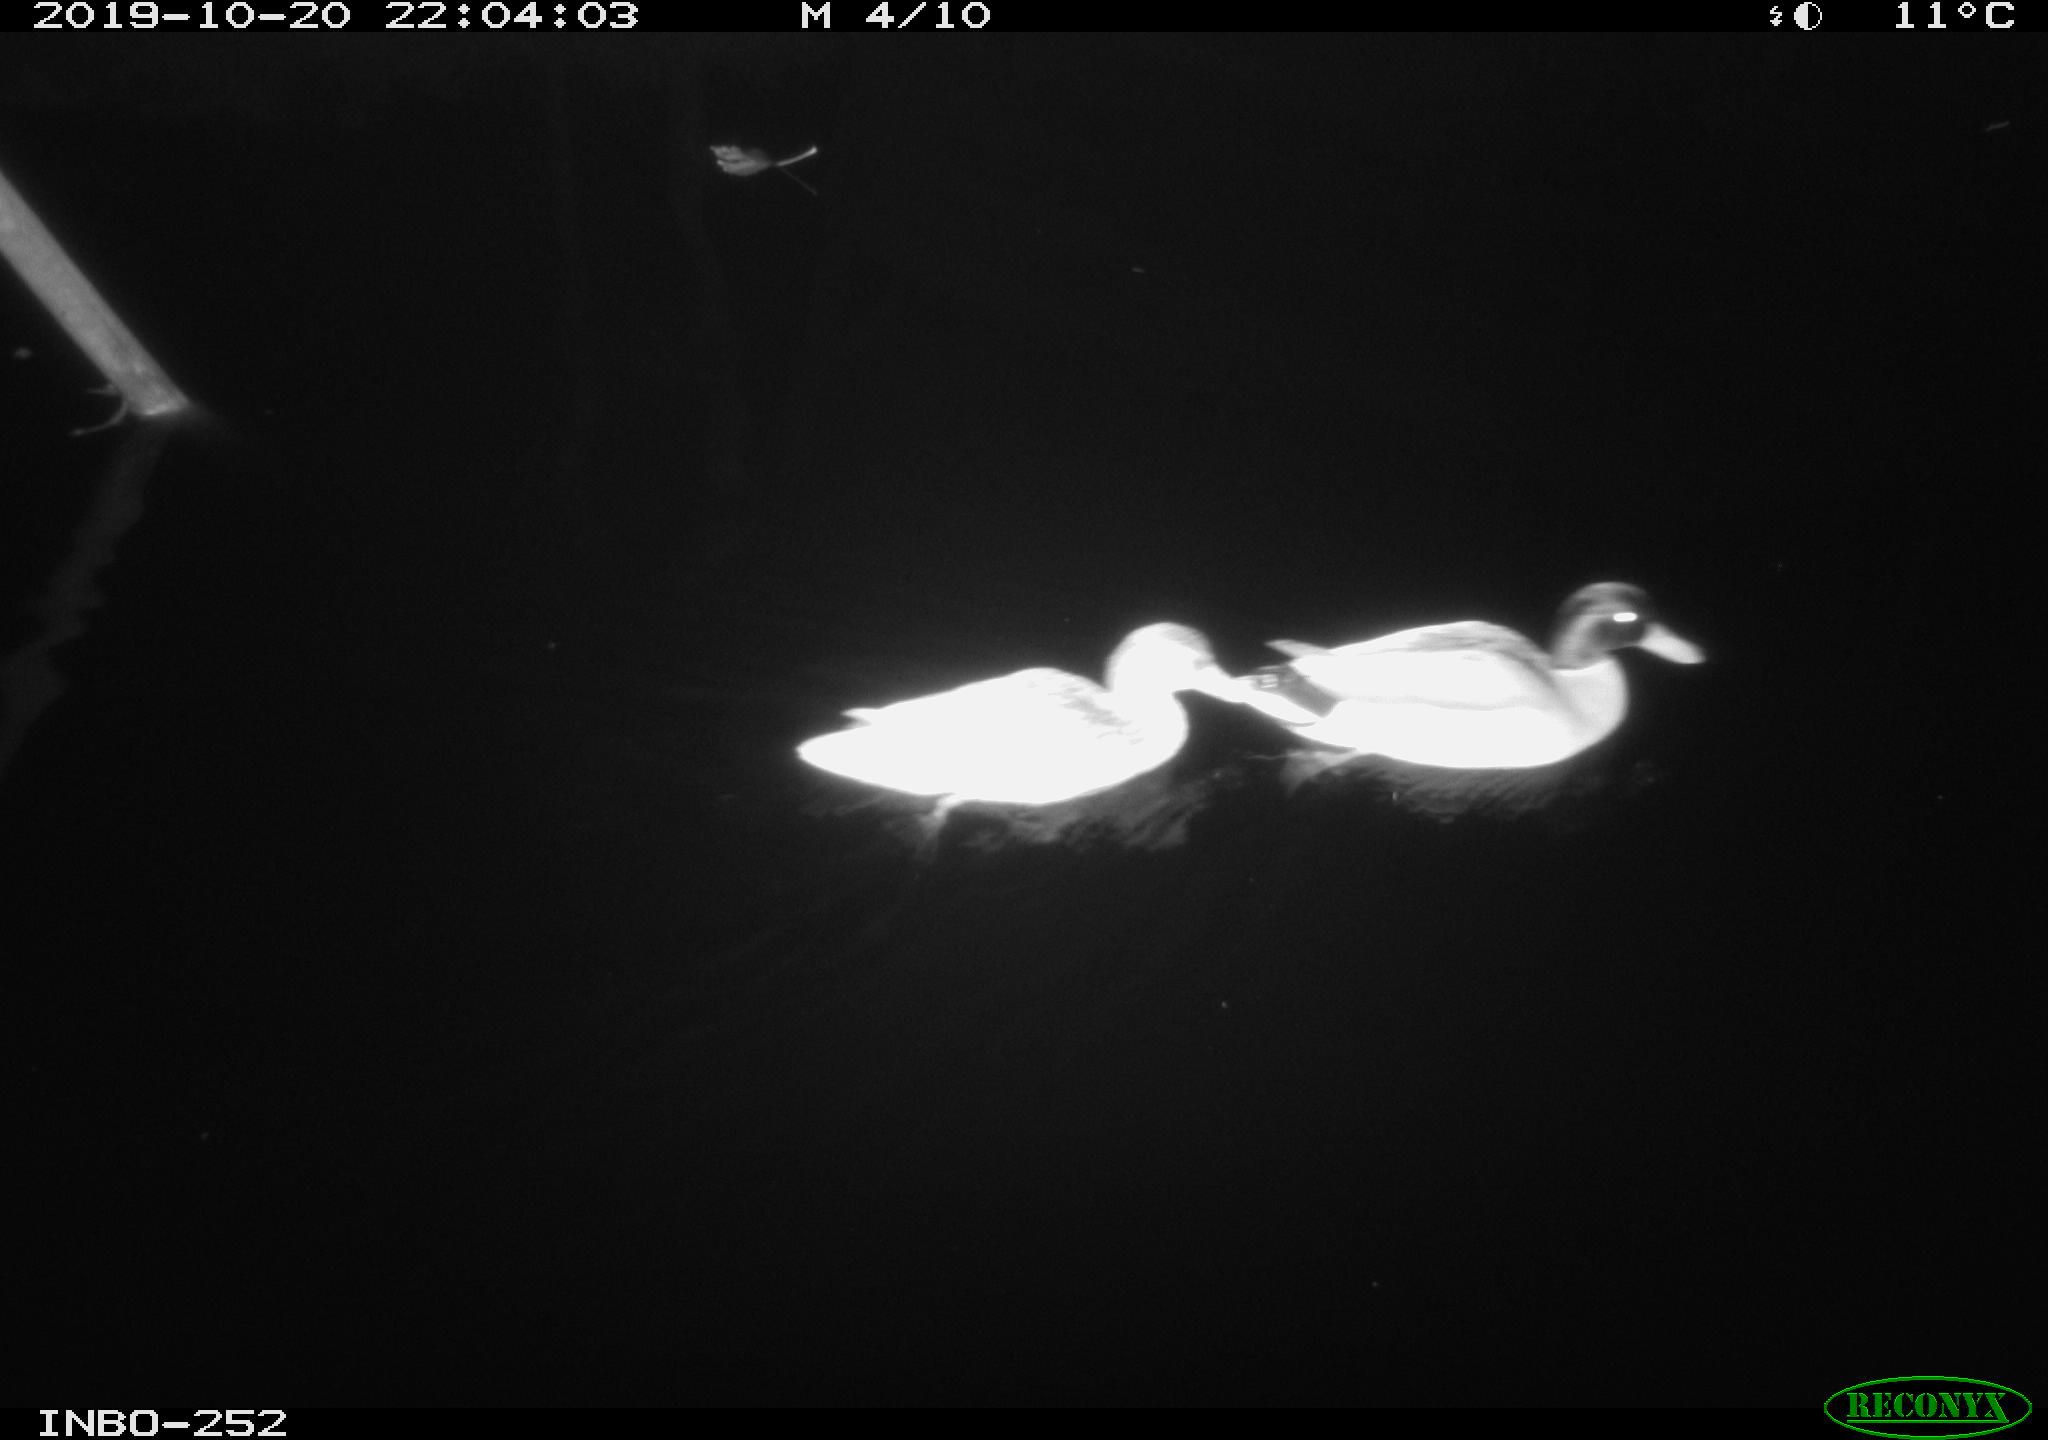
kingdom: Animalia
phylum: Chordata
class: Aves
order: Anseriformes
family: Anatidae
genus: Anas
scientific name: Anas platyrhynchos
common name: Mallard
